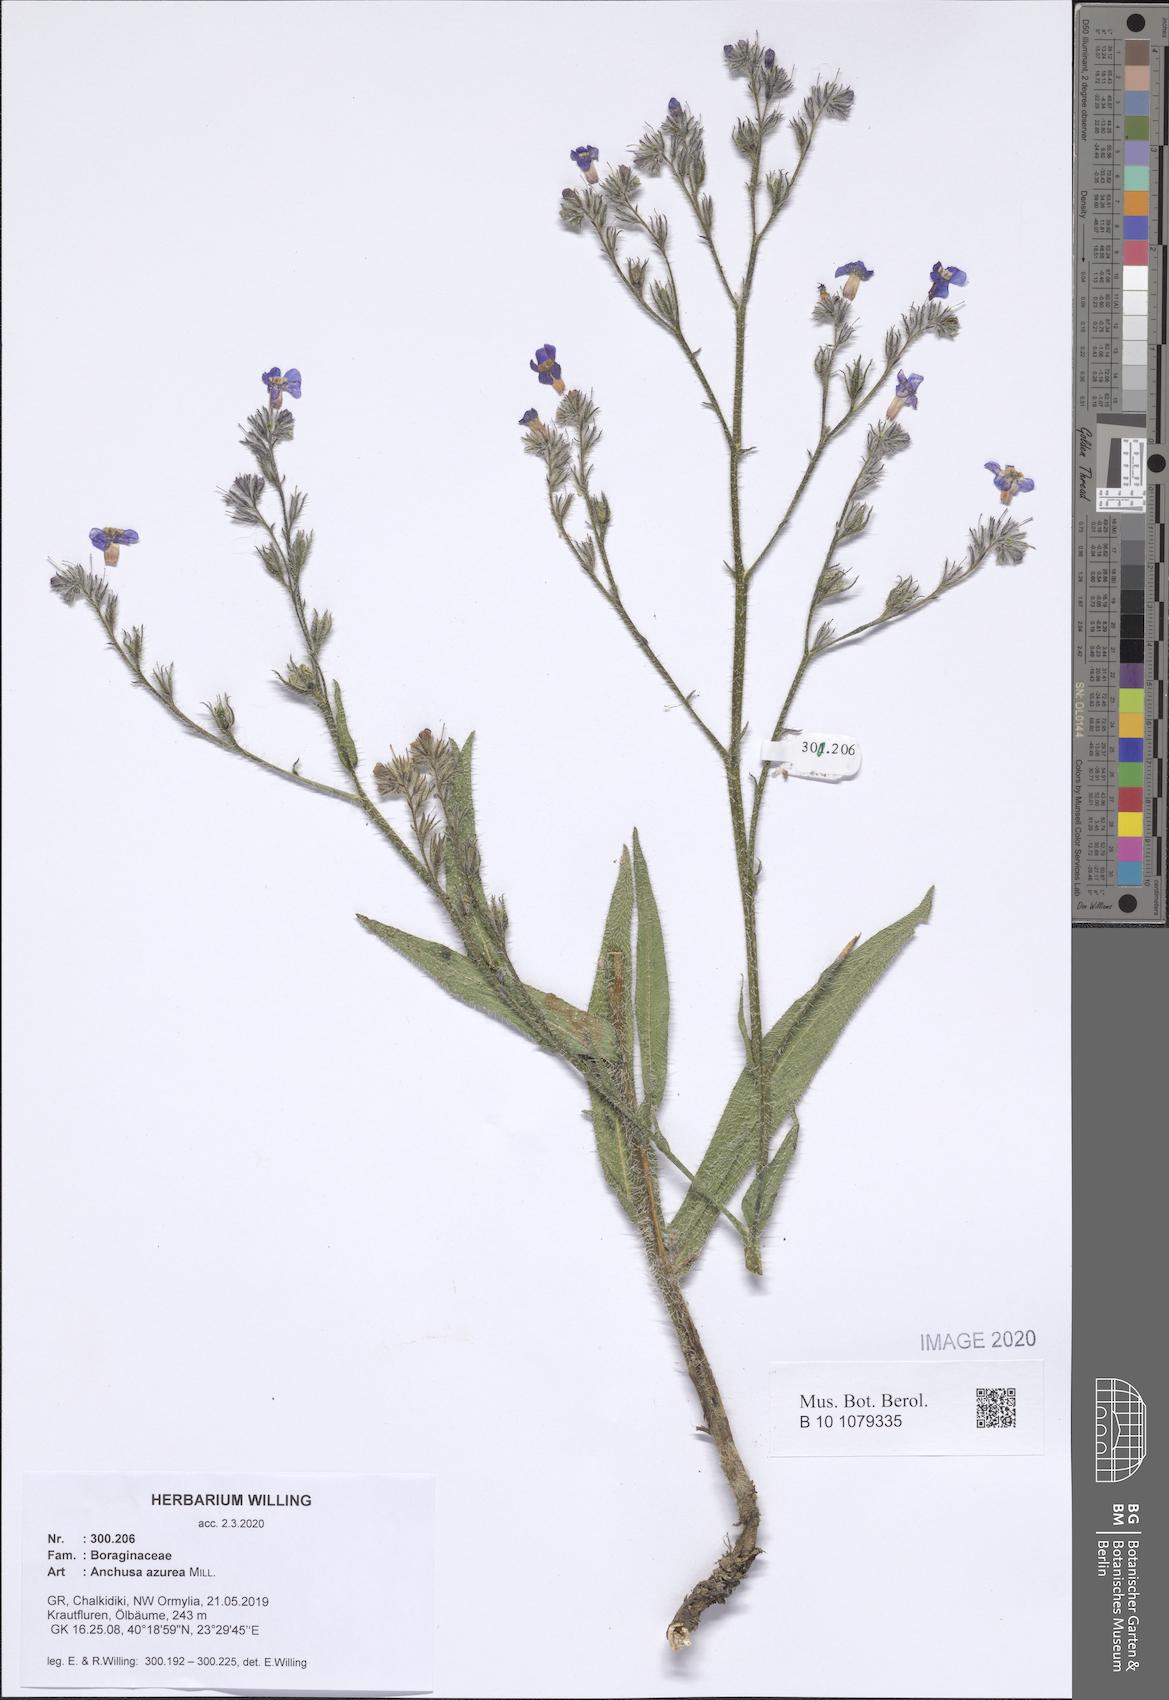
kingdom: Plantae
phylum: Tracheophyta
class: Magnoliopsida
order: Boraginales
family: Boraginaceae
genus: Anchusa
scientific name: Anchusa azurea
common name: Garden anchusa
